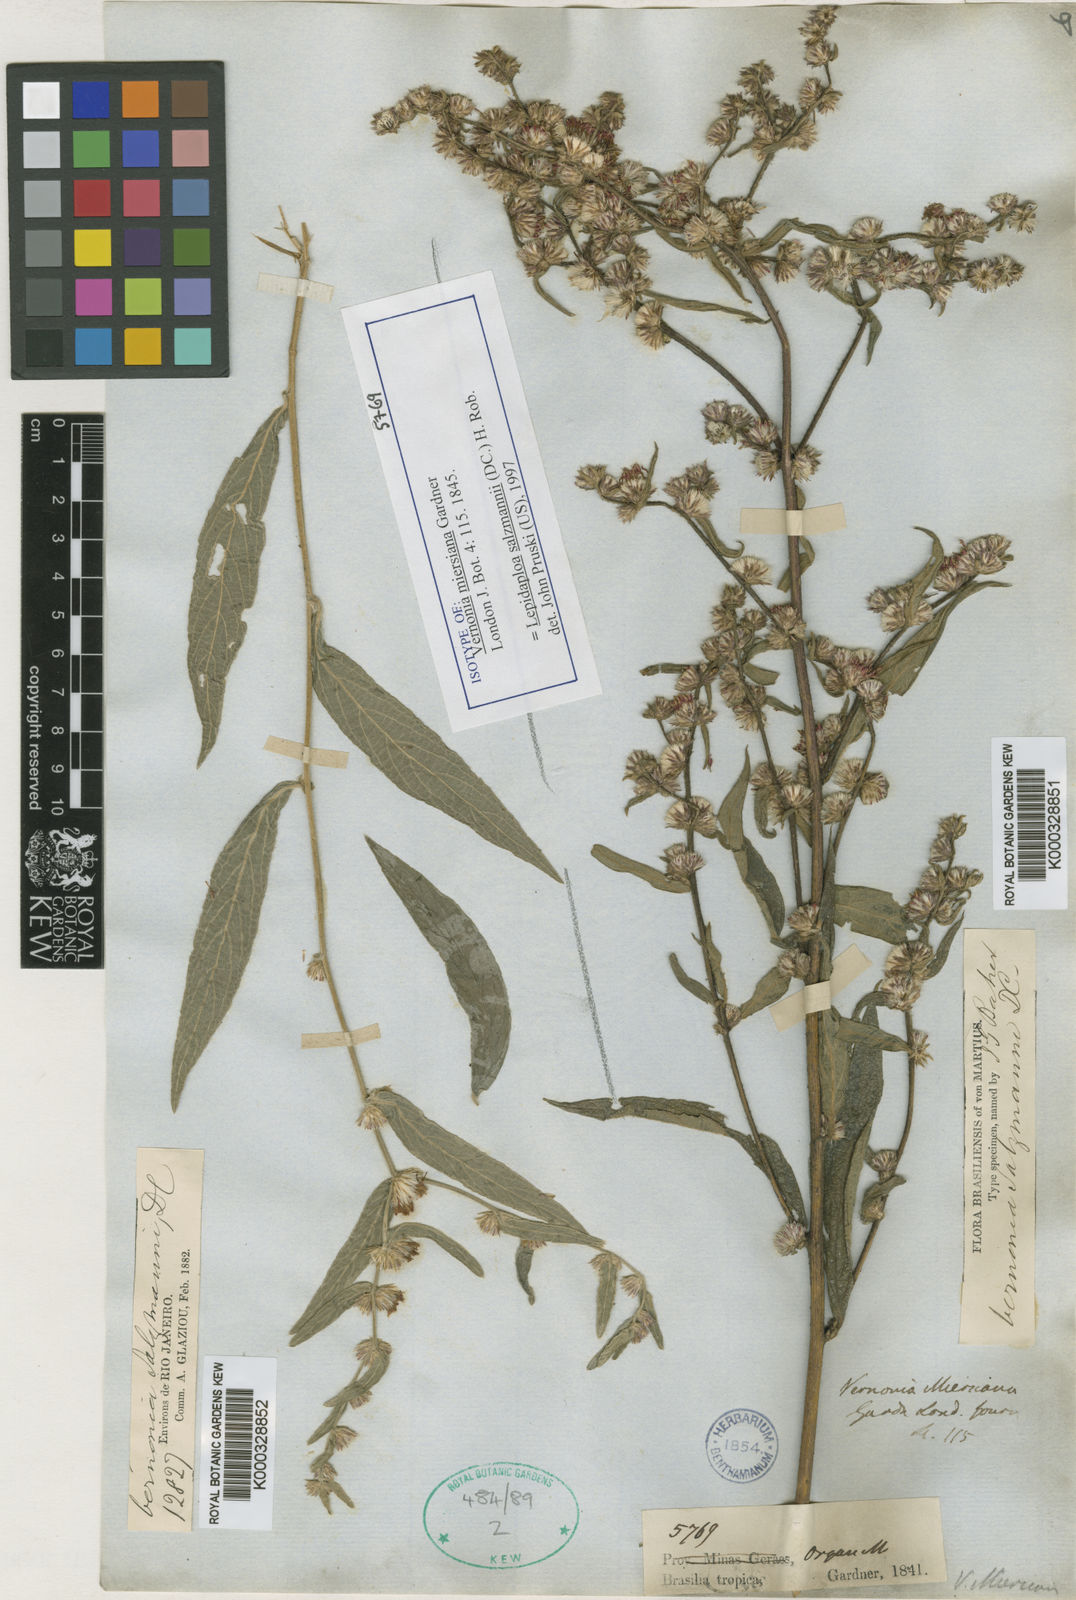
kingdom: Plantae
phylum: Tracheophyta
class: Magnoliopsida
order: Asterales
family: Asteraceae
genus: Lepidaploa
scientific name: Lepidaploa argyropappa
